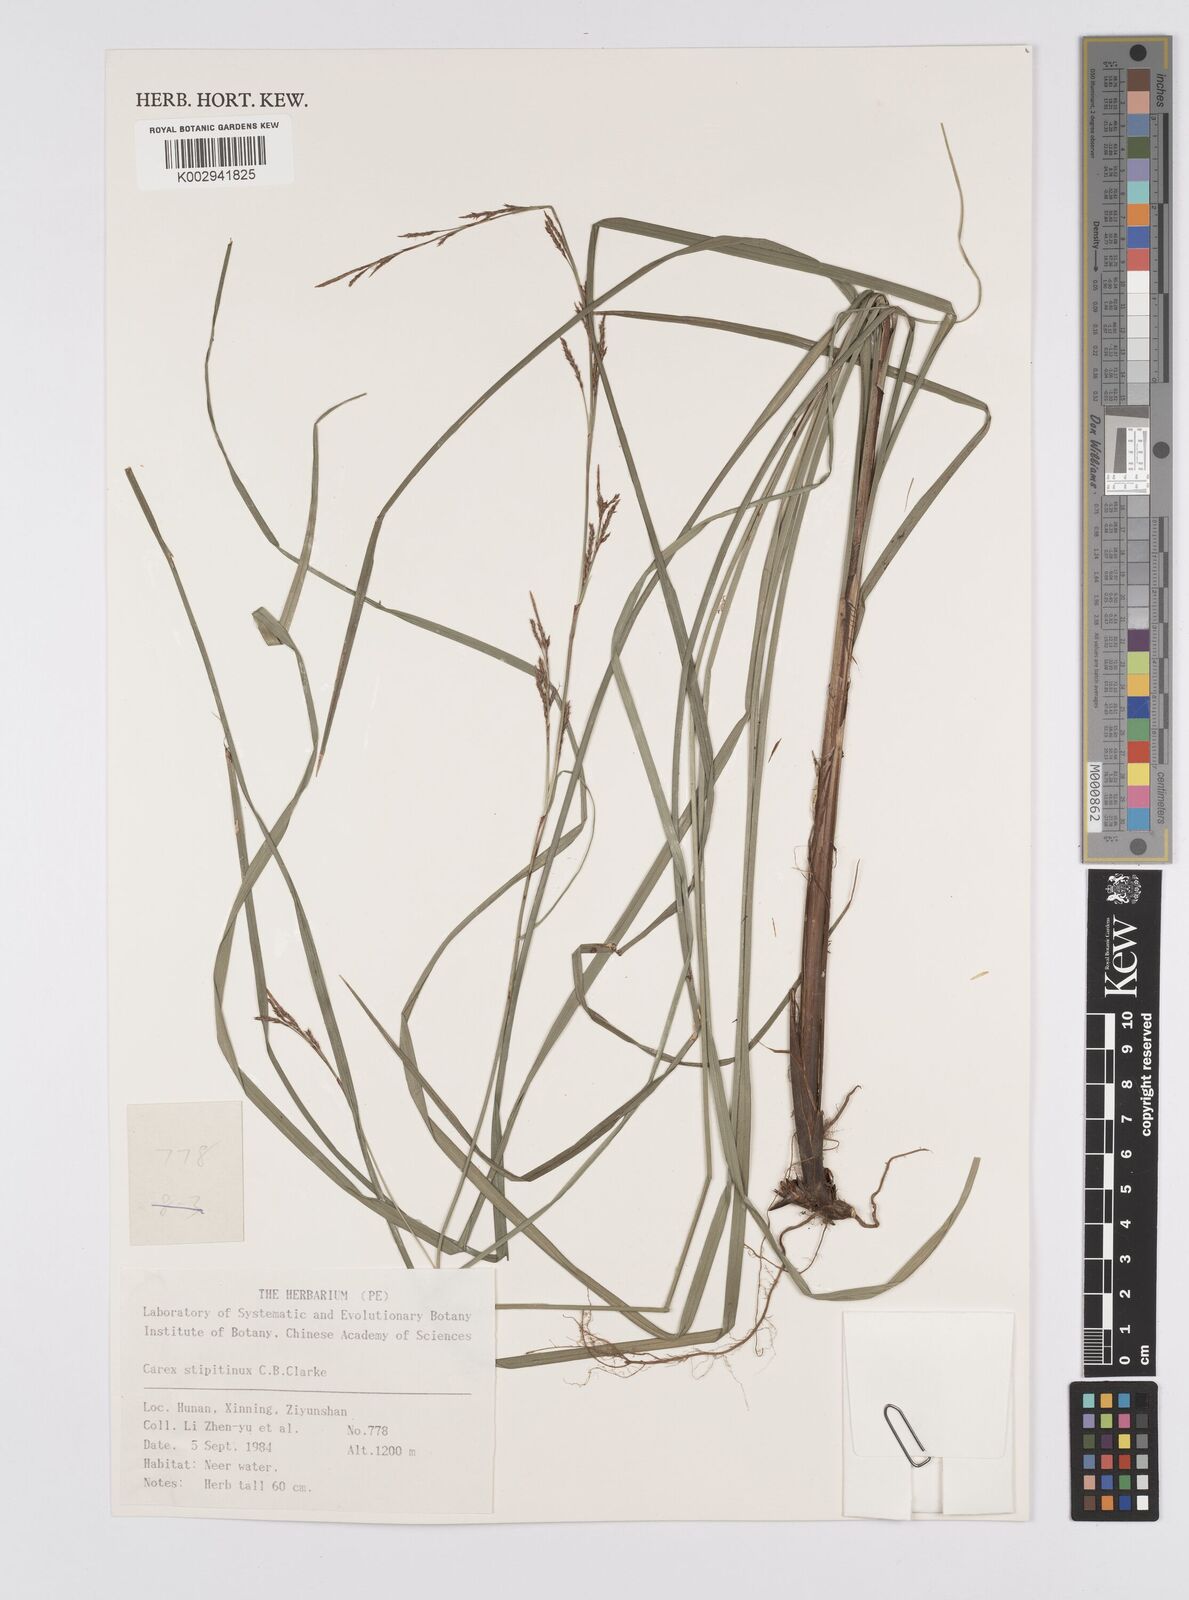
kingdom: Plantae
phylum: Tracheophyta
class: Liliopsida
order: Poales
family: Cyperaceae
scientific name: Cyperaceae
